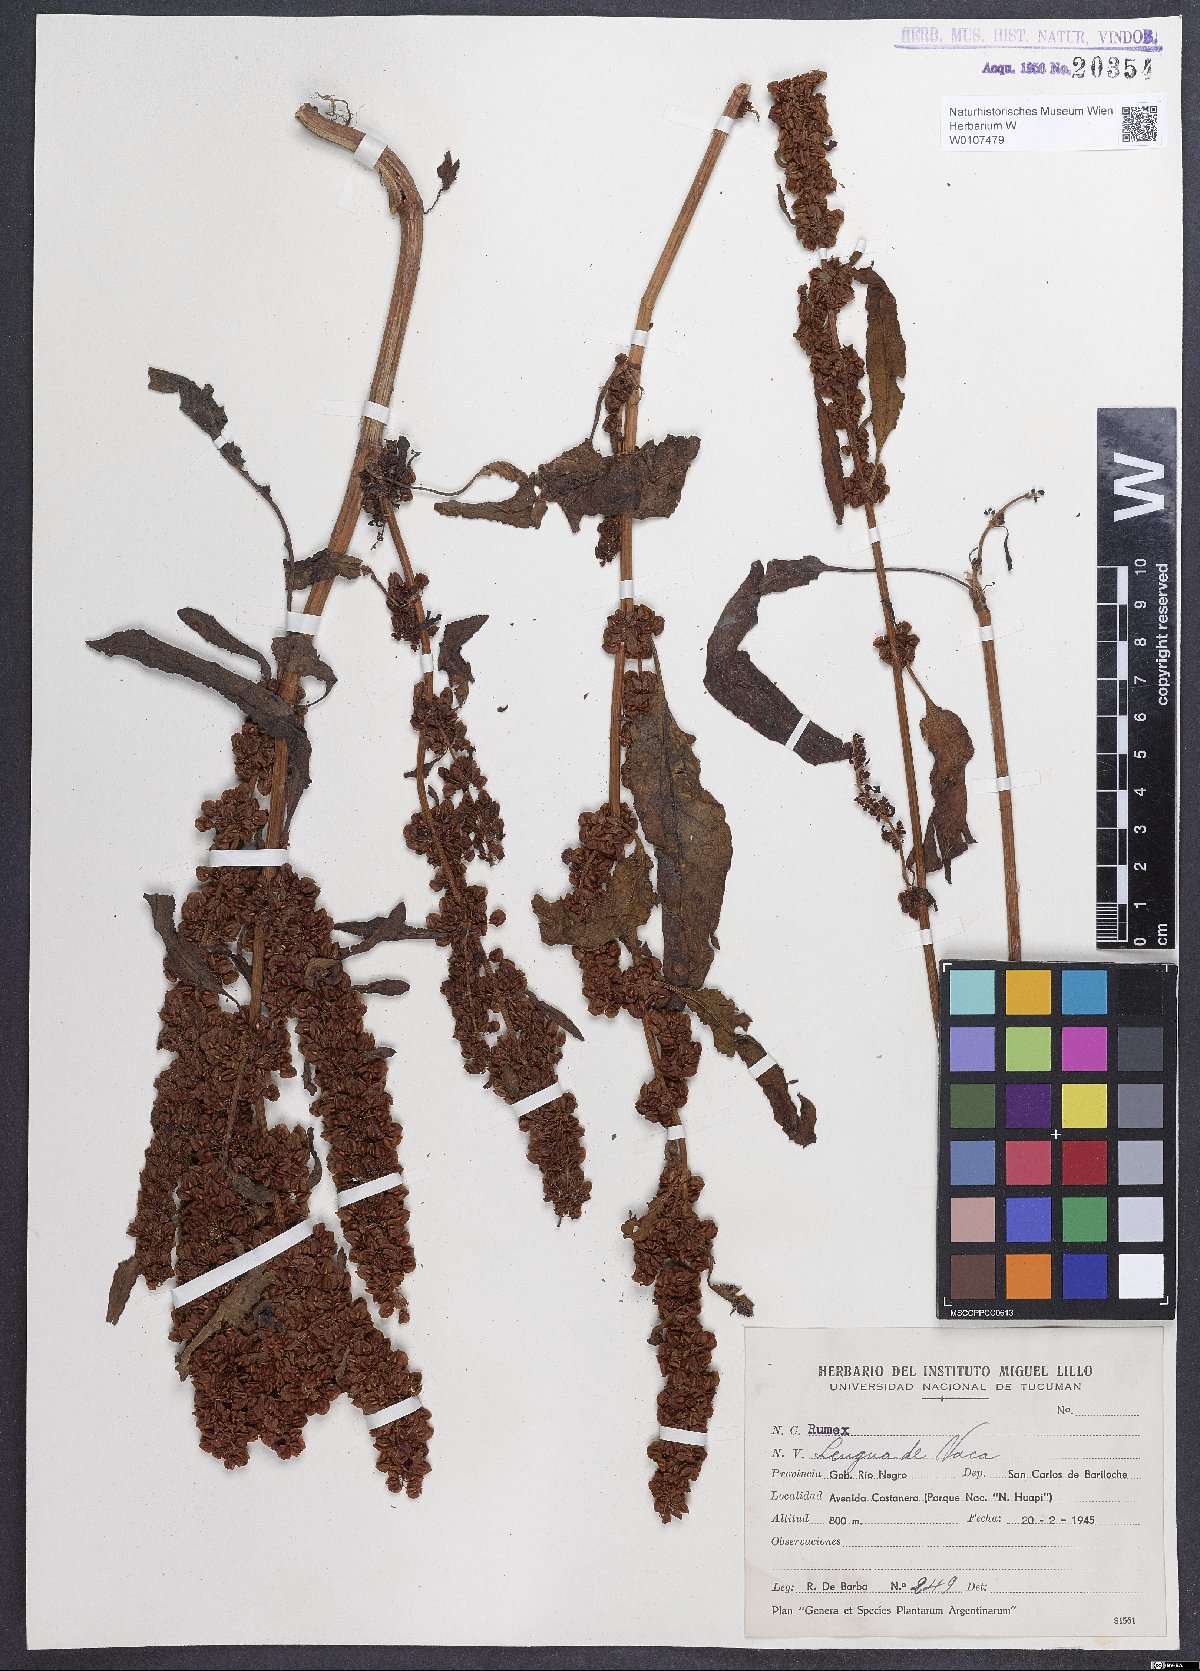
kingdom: Plantae
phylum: Tracheophyta
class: Magnoliopsida
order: Caryophyllales
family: Polygonaceae
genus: Rumex
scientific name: Rumex crispus
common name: Curled dock
